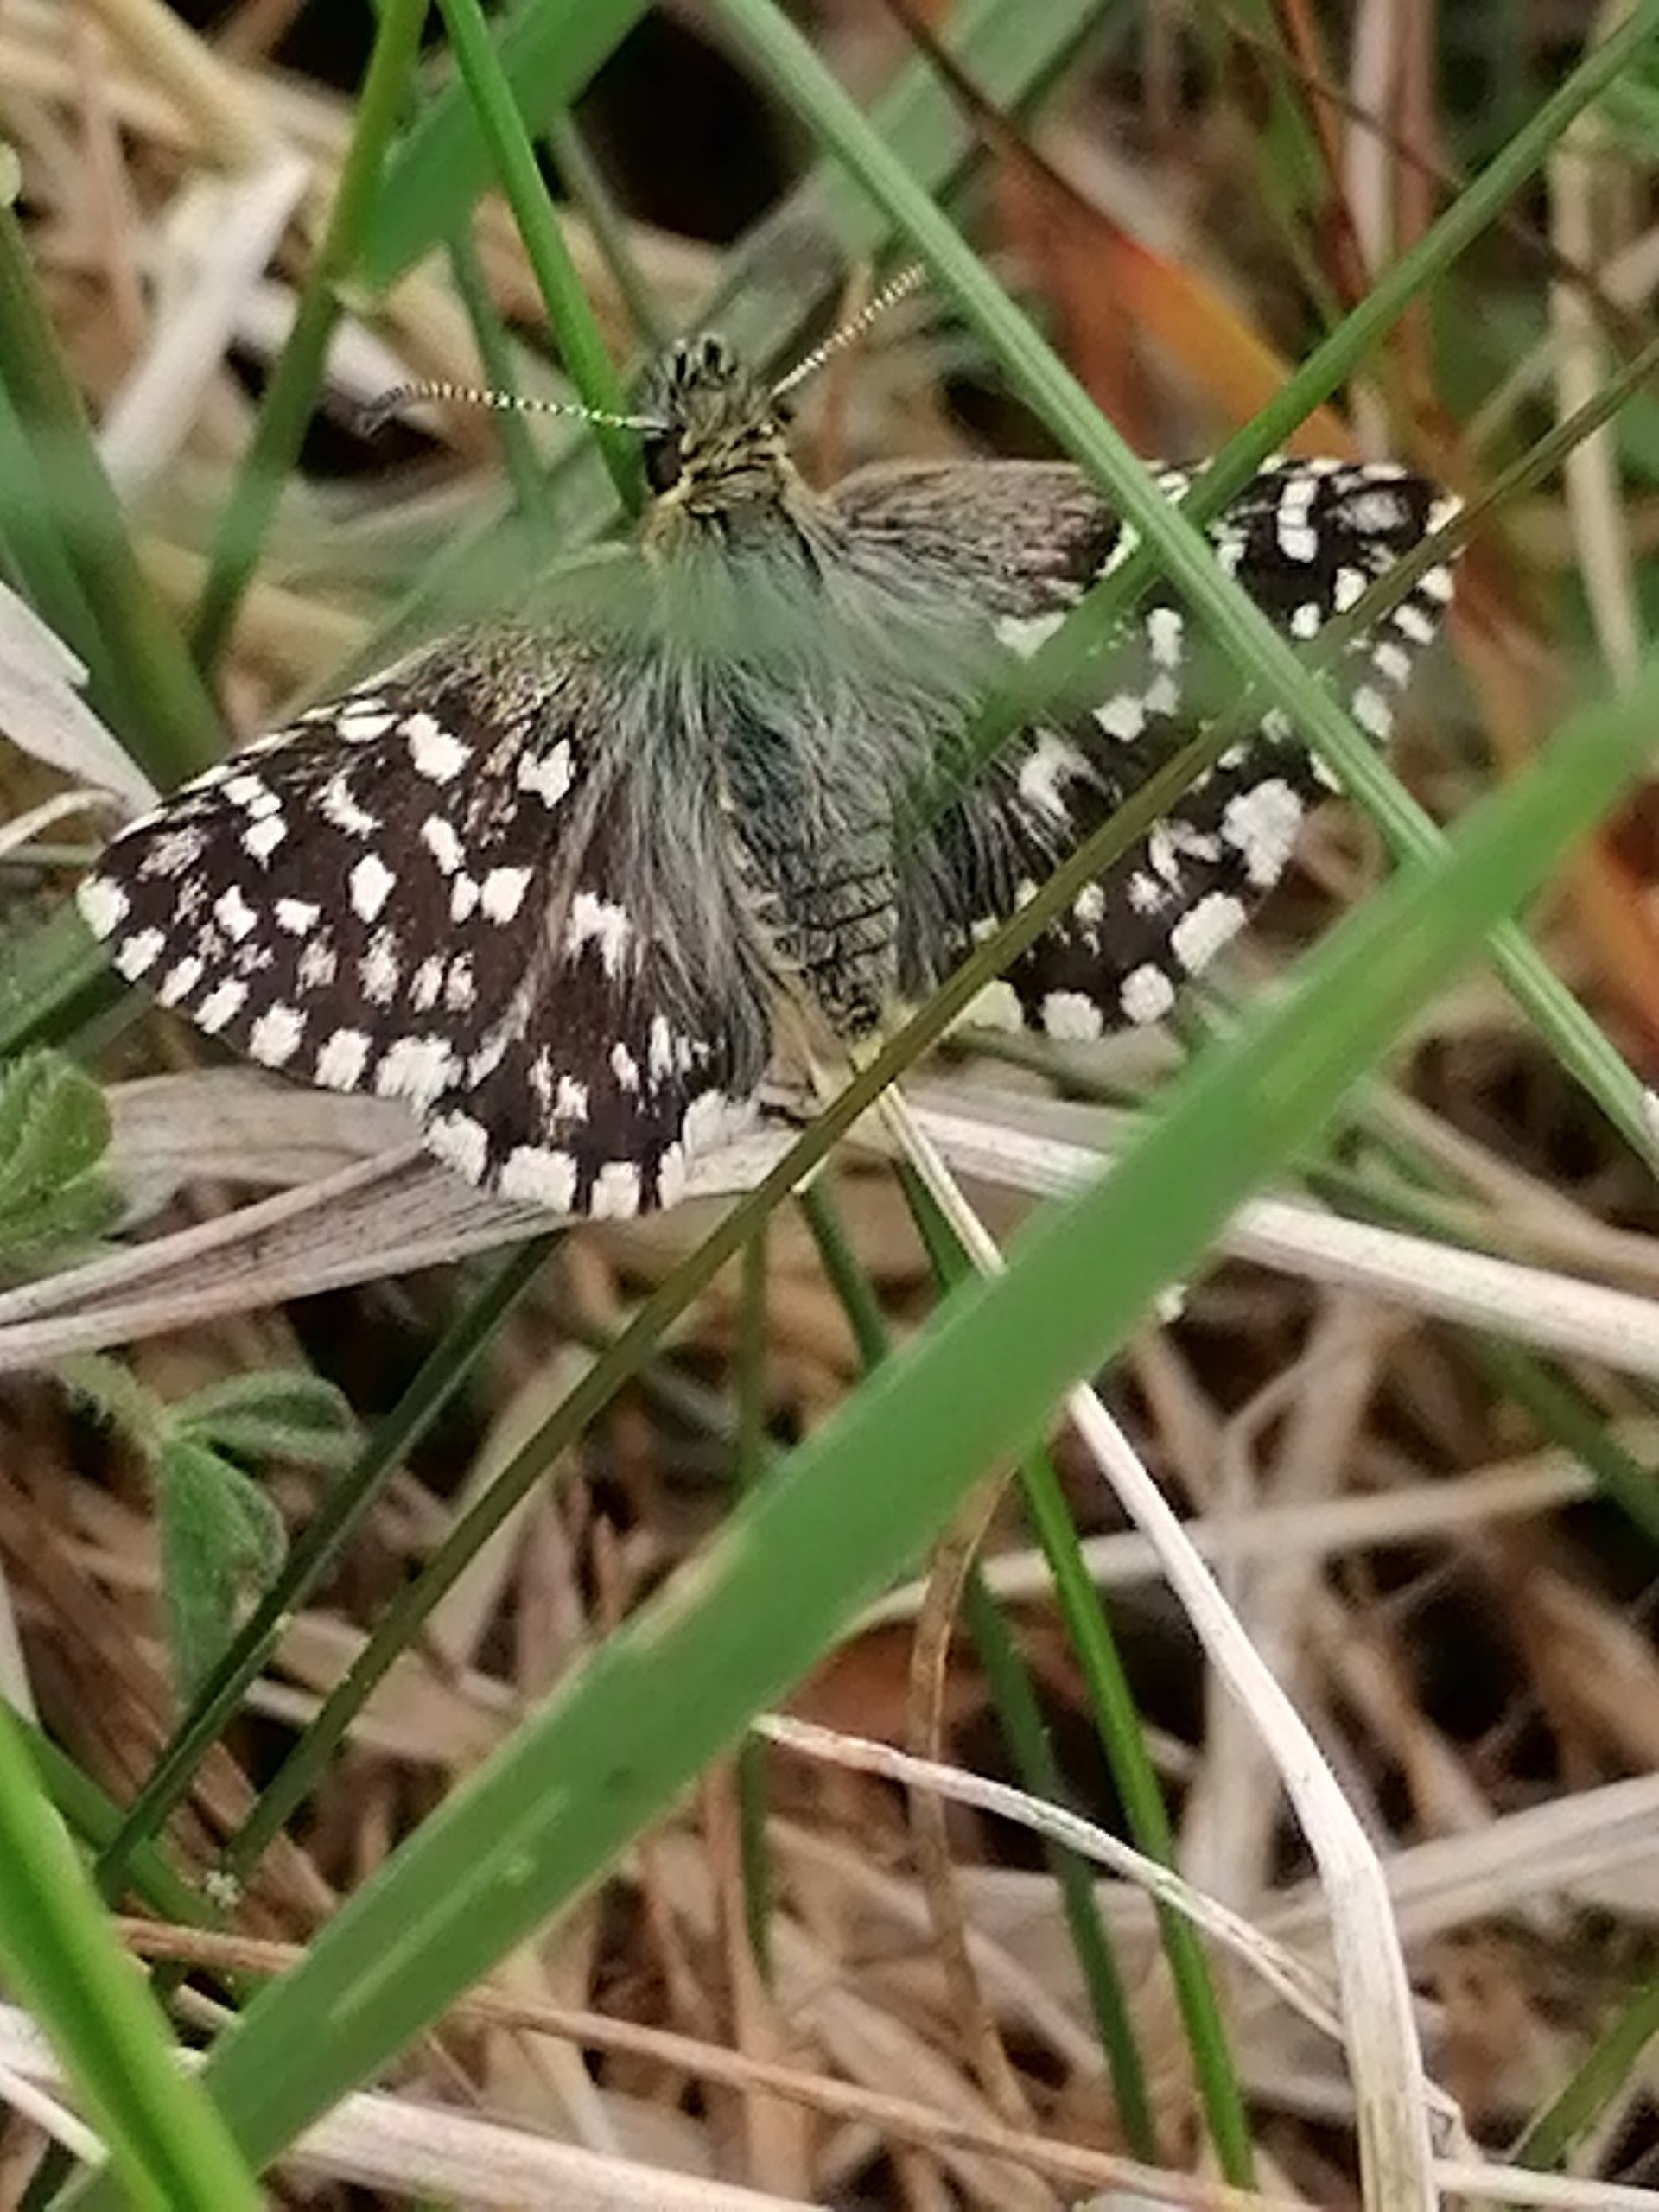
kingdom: Animalia
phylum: Arthropoda
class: Insecta
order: Lepidoptera
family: Hesperiidae
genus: Pyrgus
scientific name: Pyrgus malvae
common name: Spættet bredpande
